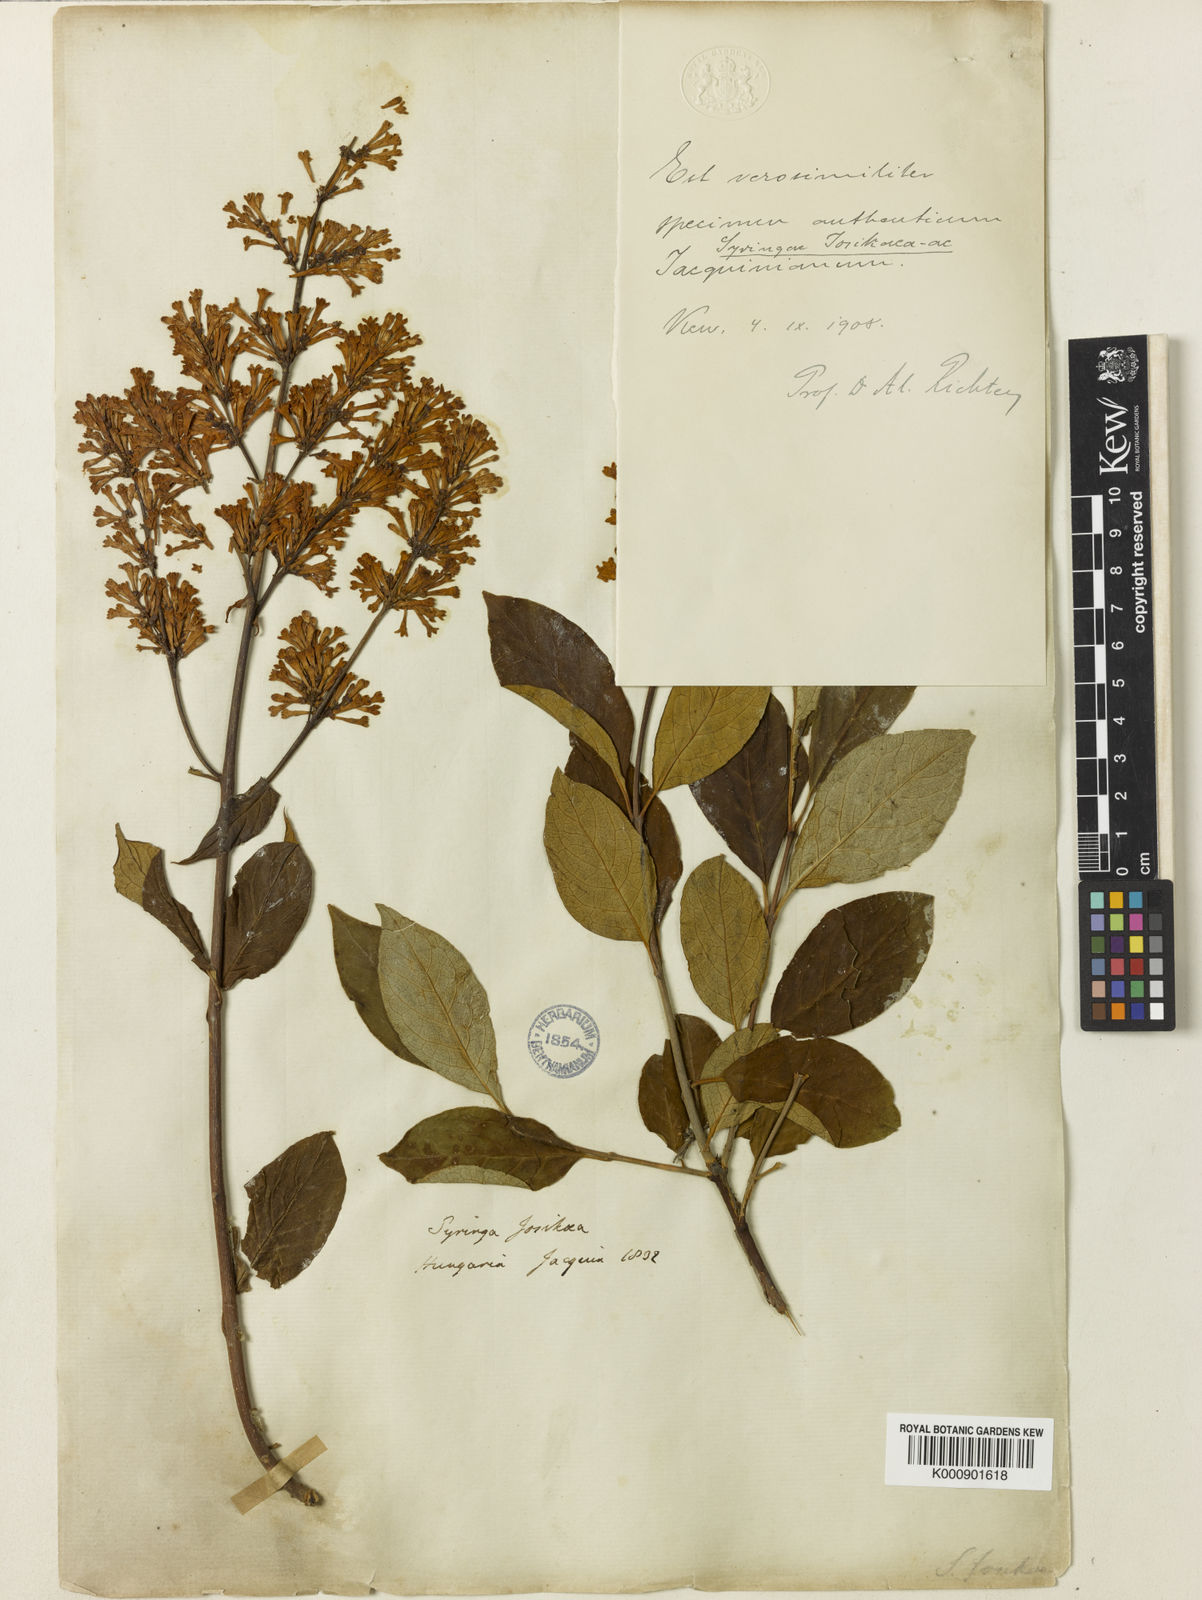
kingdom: Plantae
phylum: Tracheophyta
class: Magnoliopsida
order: Lamiales
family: Oleaceae
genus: Syringa
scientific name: Syringa
